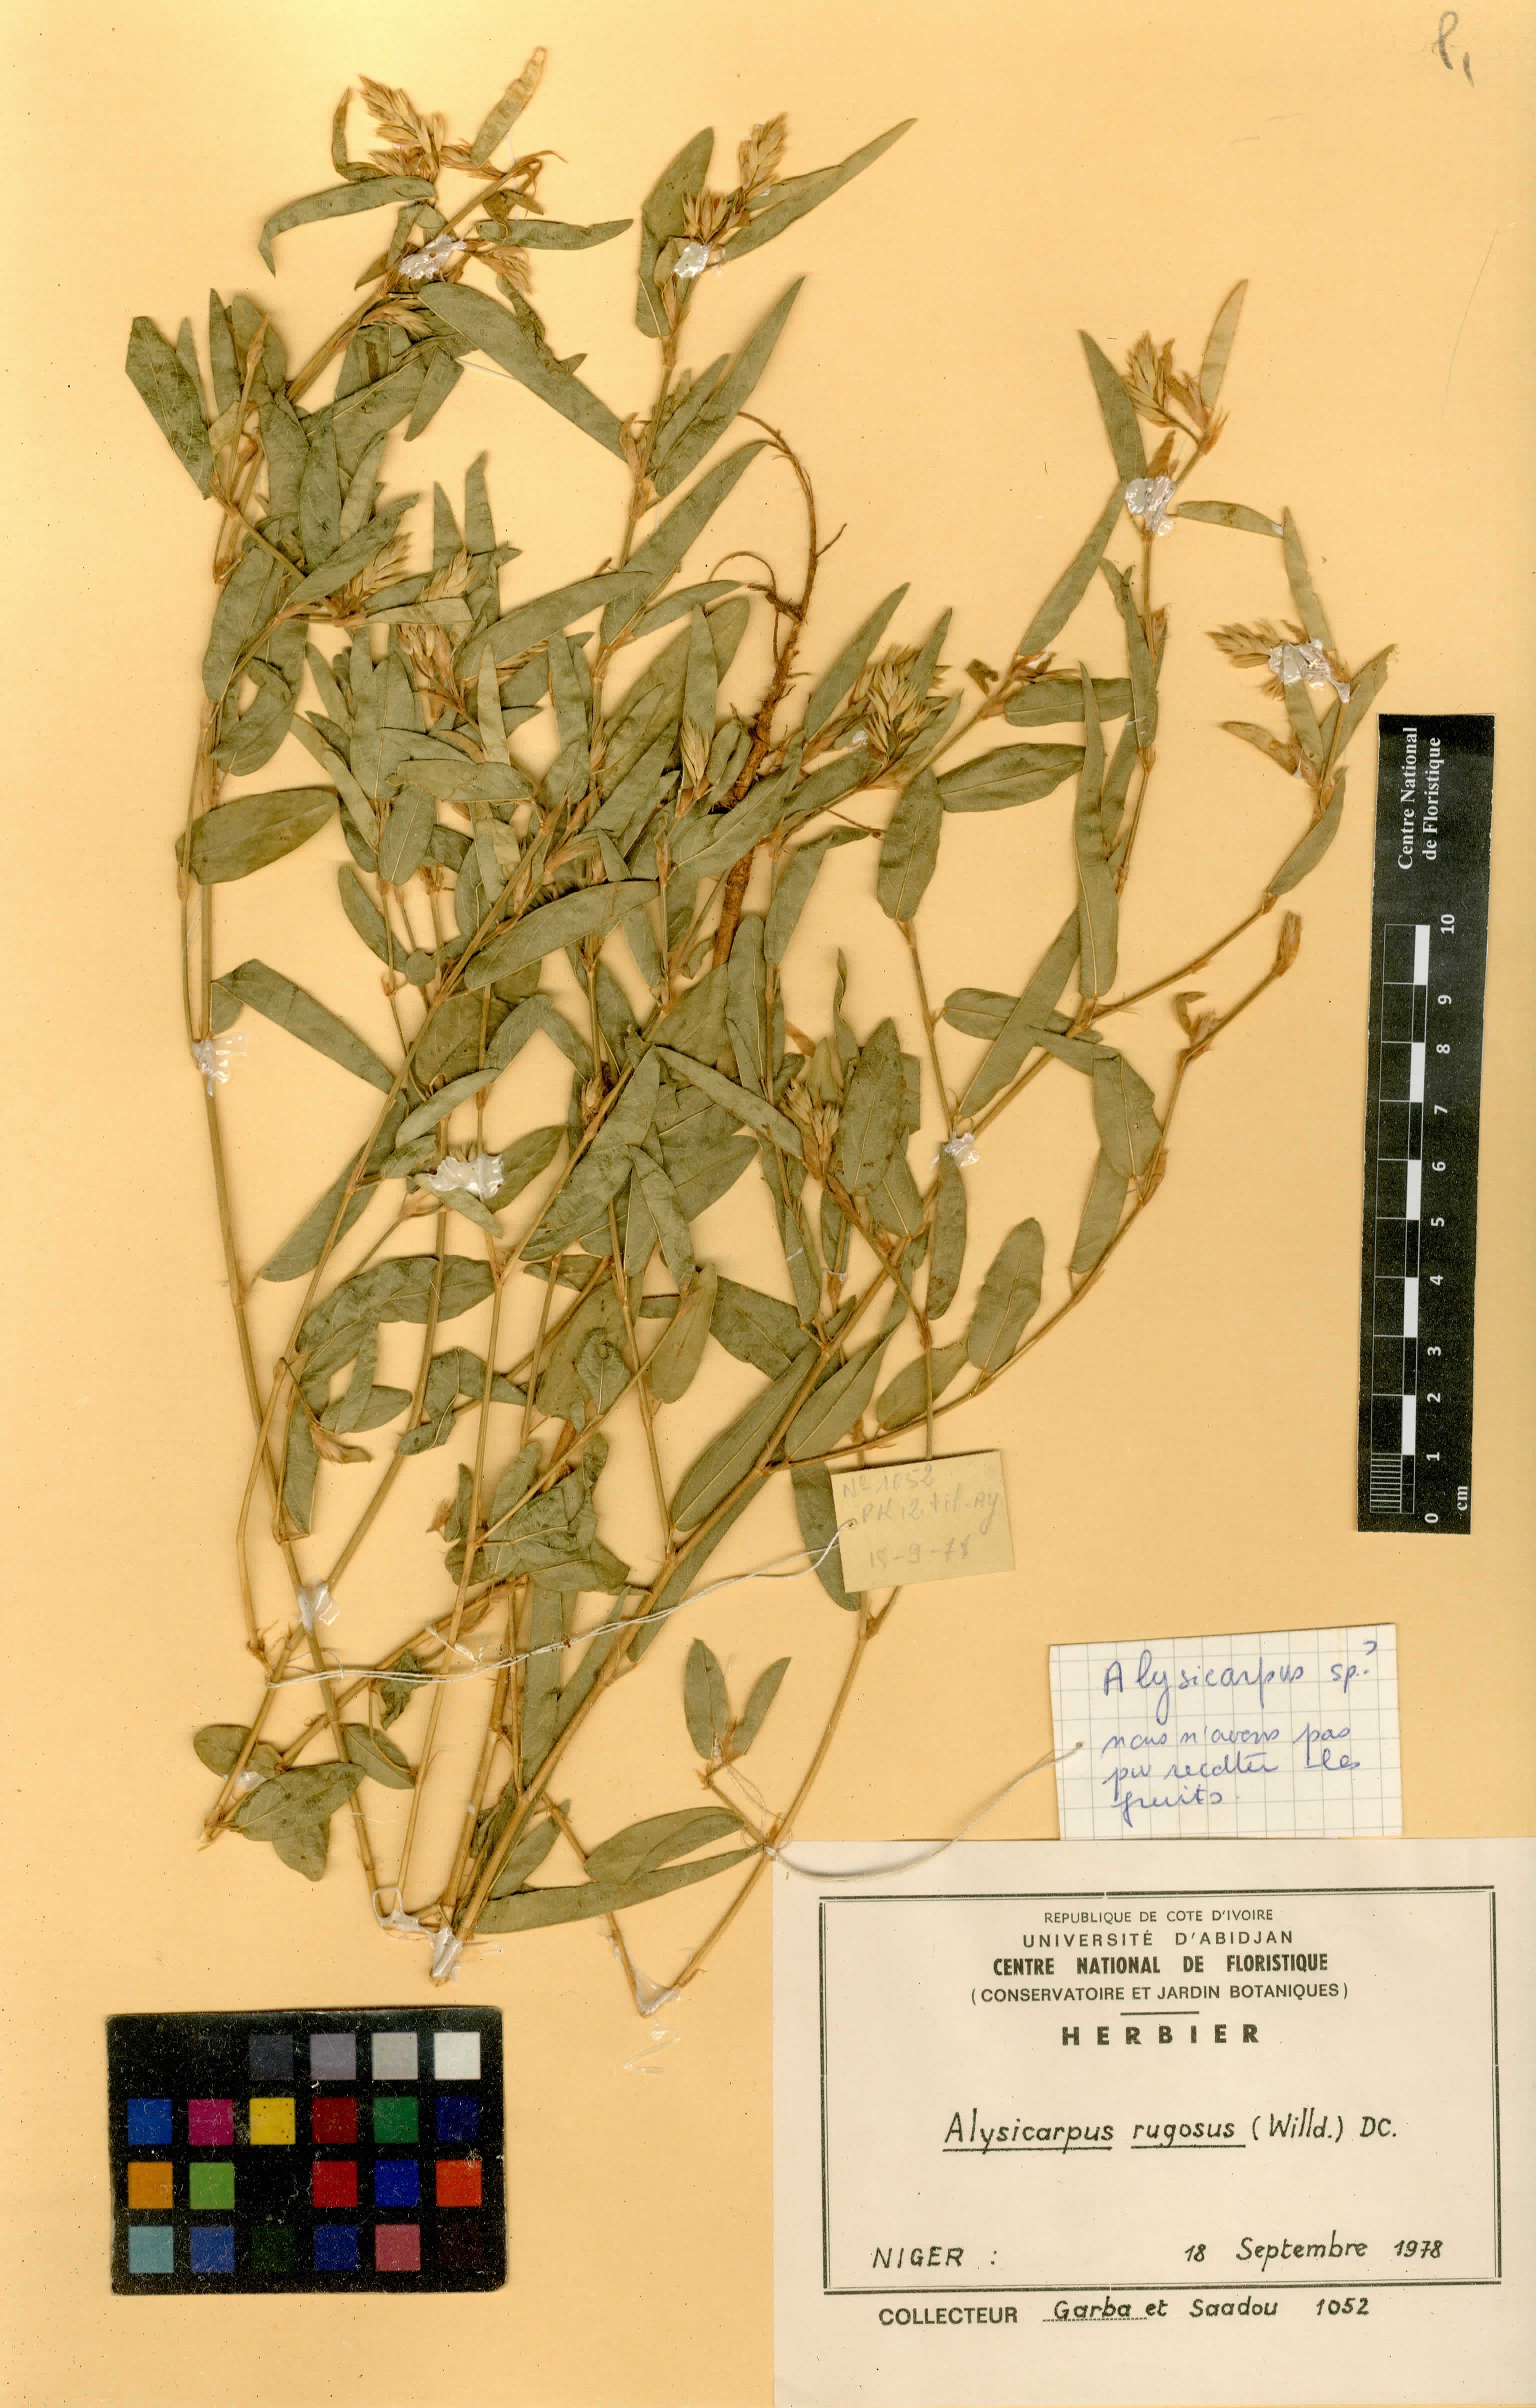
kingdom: Plantae
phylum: Tracheophyta
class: Magnoliopsida
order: Fabales
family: Fabaceae
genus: Alysicarpus
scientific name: Alysicarpus rugosus
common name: Red moneywort
